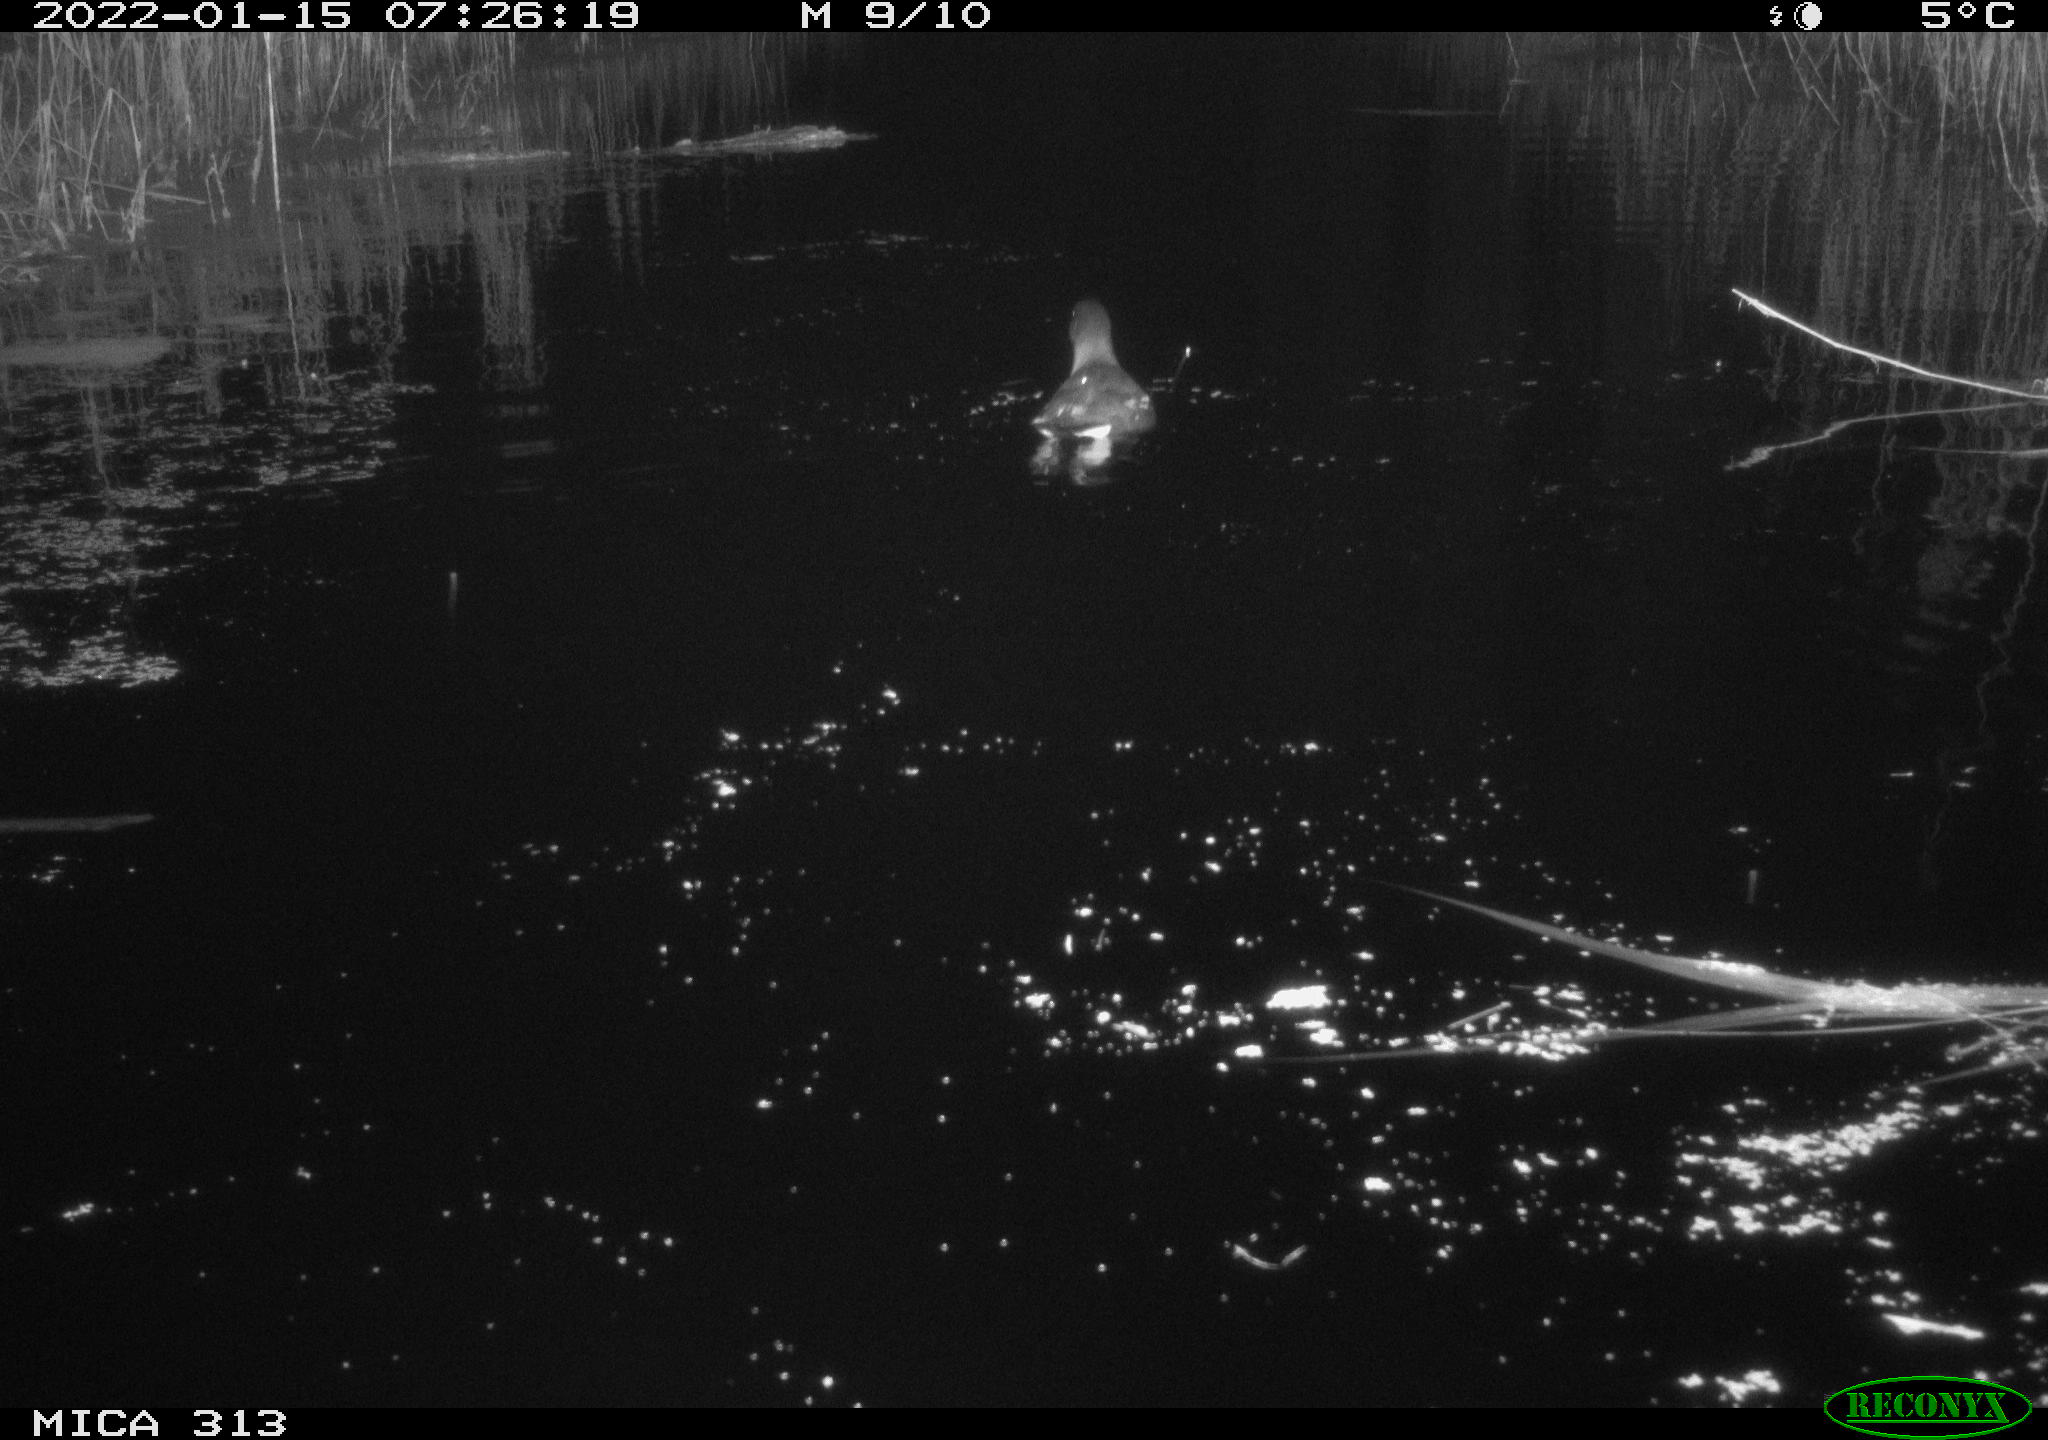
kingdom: Animalia
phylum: Chordata
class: Aves
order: Anseriformes
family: Anatidae
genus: Anas
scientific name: Anas
